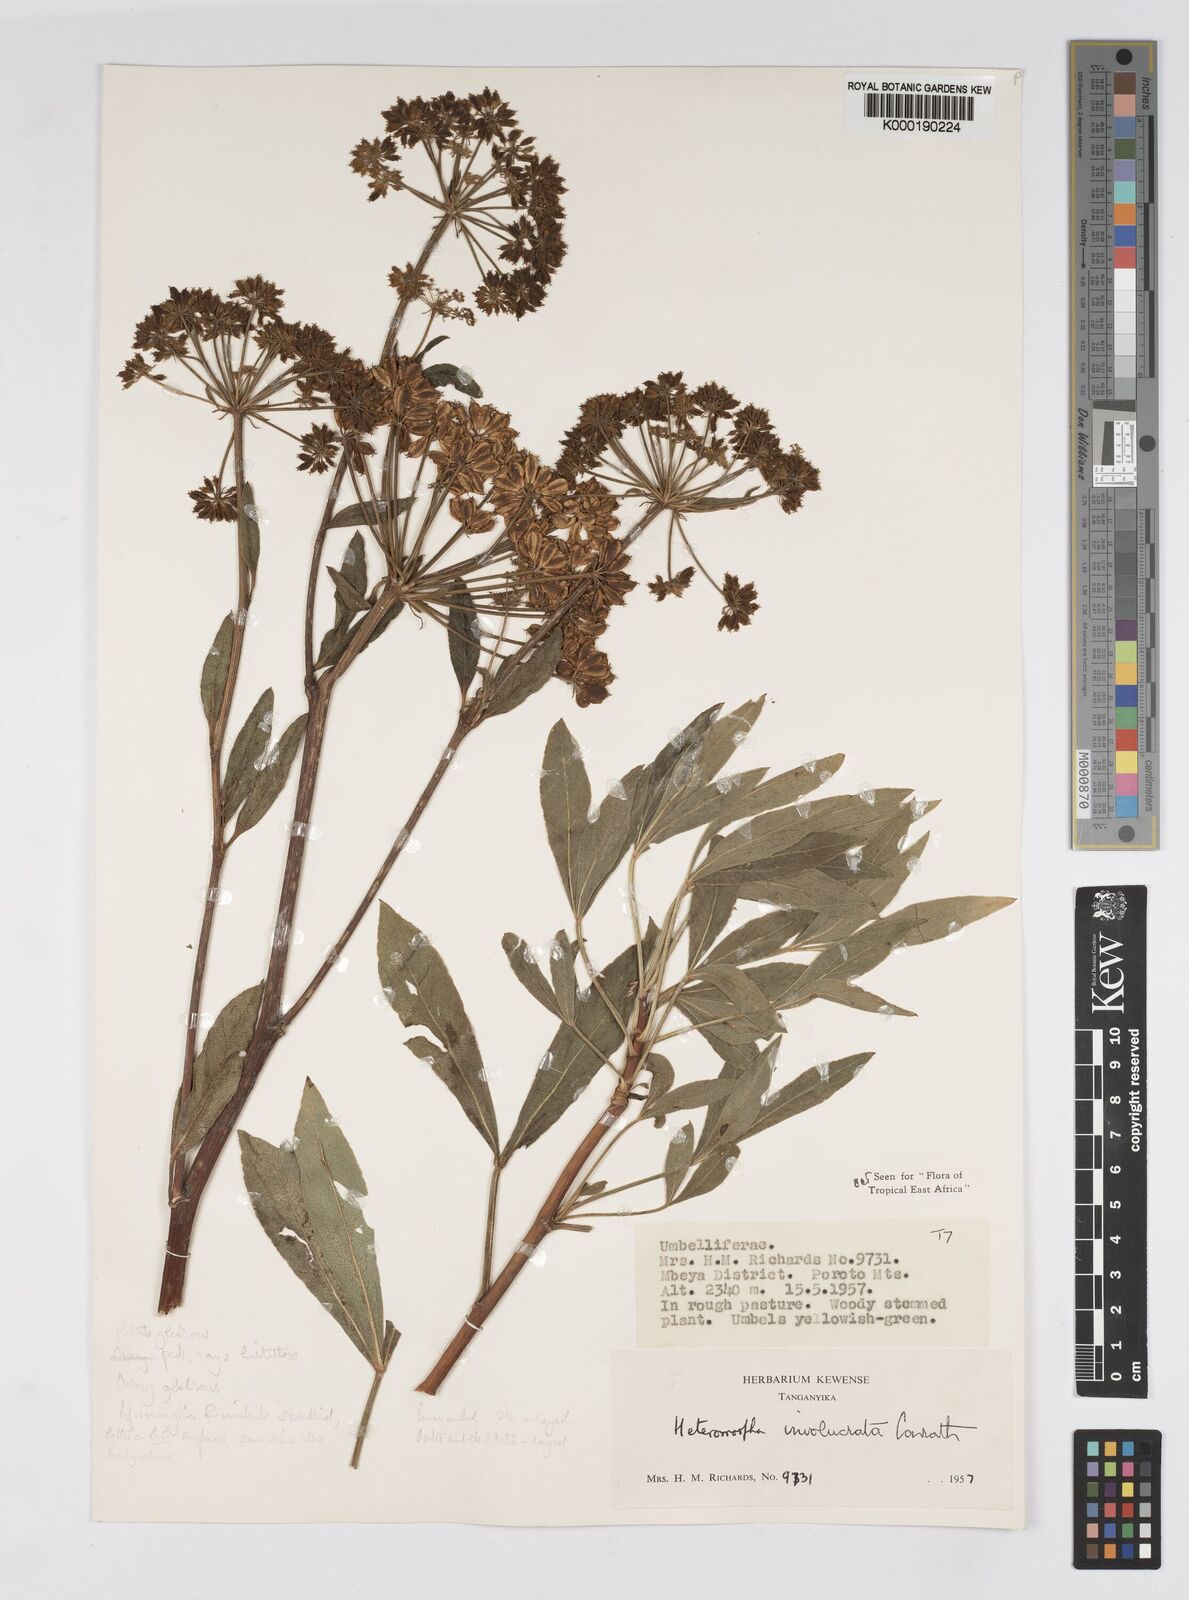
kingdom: Plantae
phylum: Tracheophyta
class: Magnoliopsida
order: Apiales
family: Apiaceae
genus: Heteromorpha
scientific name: Heteromorpha involucrata
